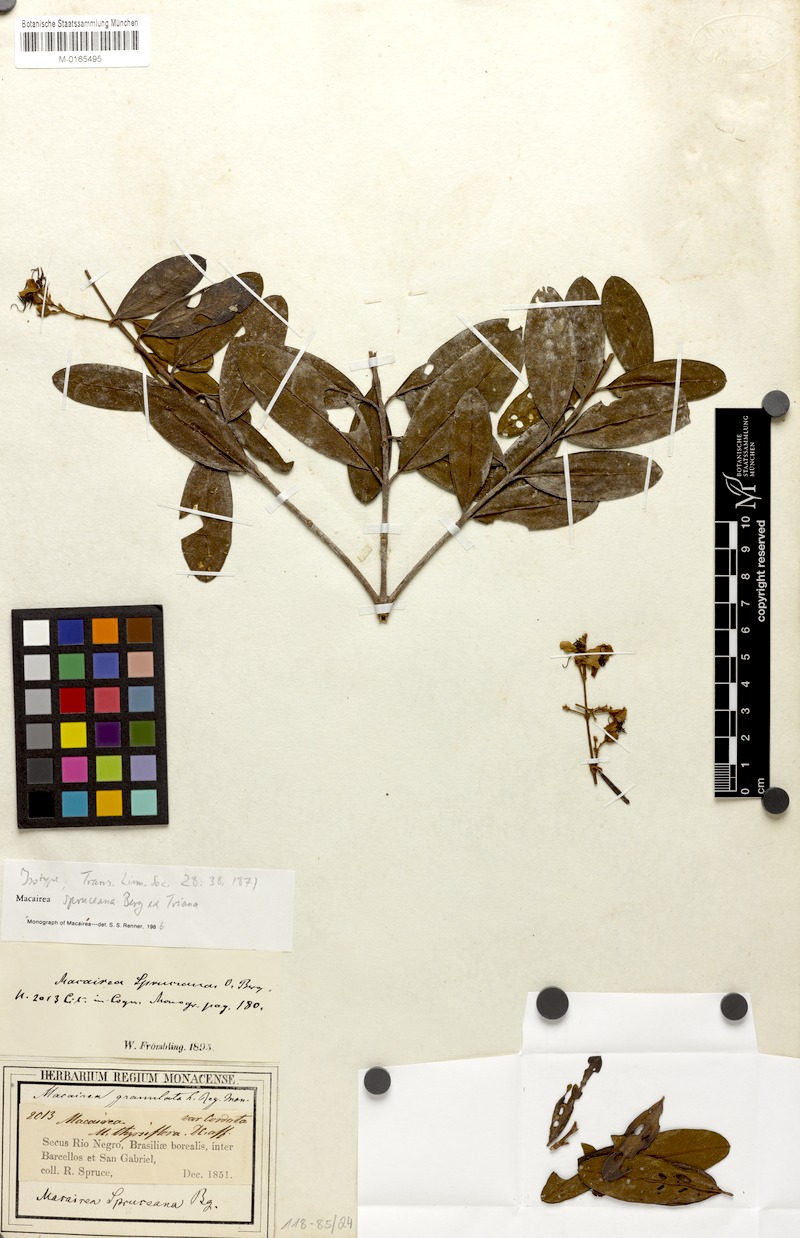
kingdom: Plantae
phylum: Tracheophyta
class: Magnoliopsida
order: Myrtales
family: Melastomataceae
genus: Macairea
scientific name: Macairea spruceana
